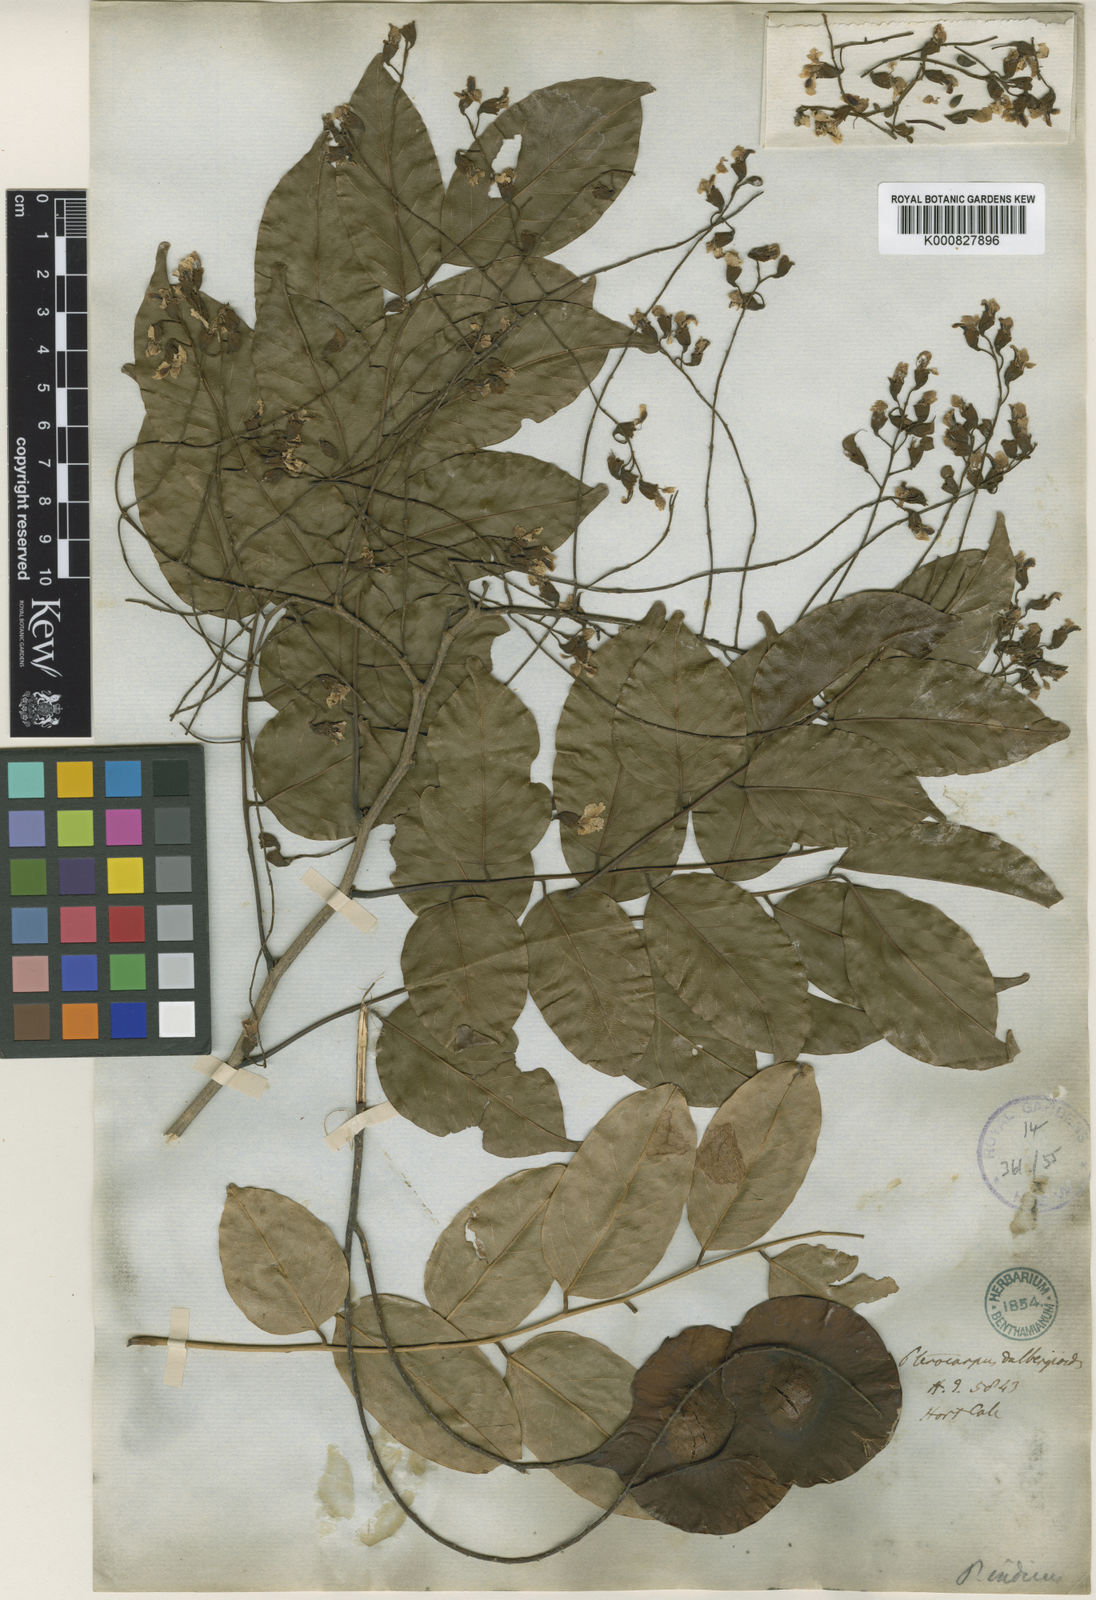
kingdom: Plantae
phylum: Tracheophyta
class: Magnoliopsida
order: Fabales
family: Fabaceae
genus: Pterocarpus
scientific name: Pterocarpus
